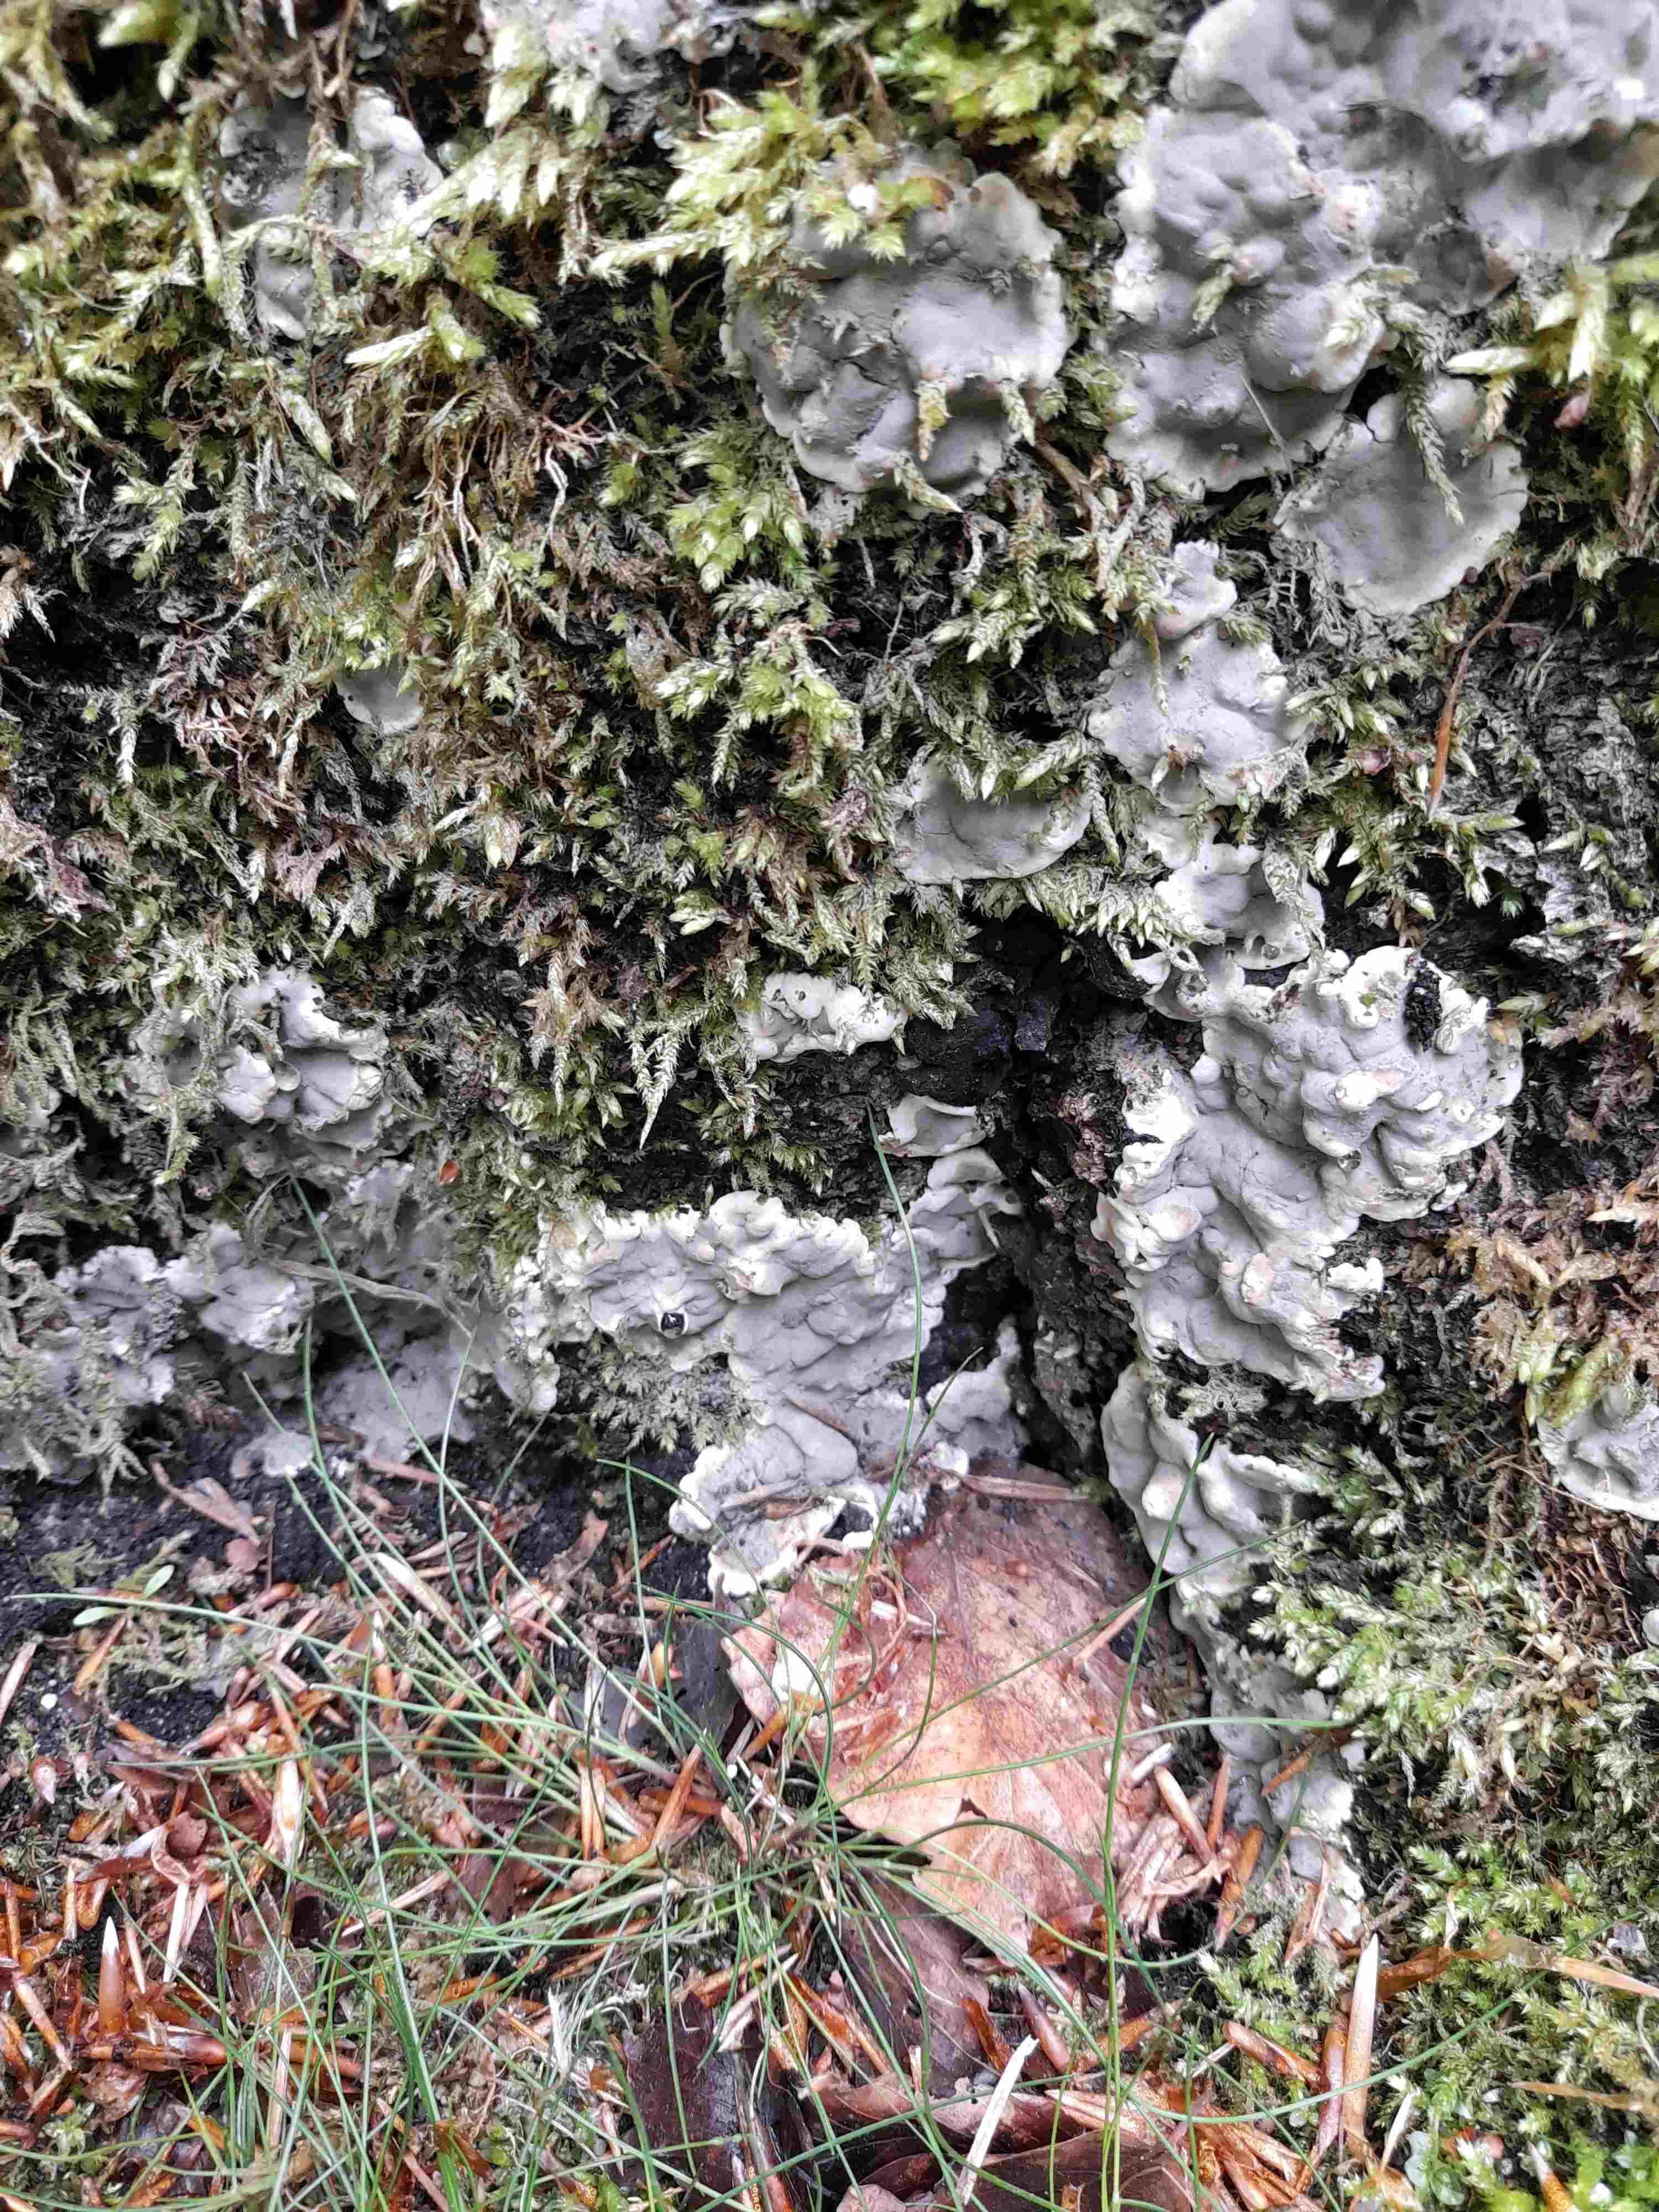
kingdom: Fungi
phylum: Ascomycota
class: Sordariomycetes
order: Xylariales
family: Xylariaceae
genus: Kretzschmaria
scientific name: Kretzschmaria deusta
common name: stor kulsvamp
